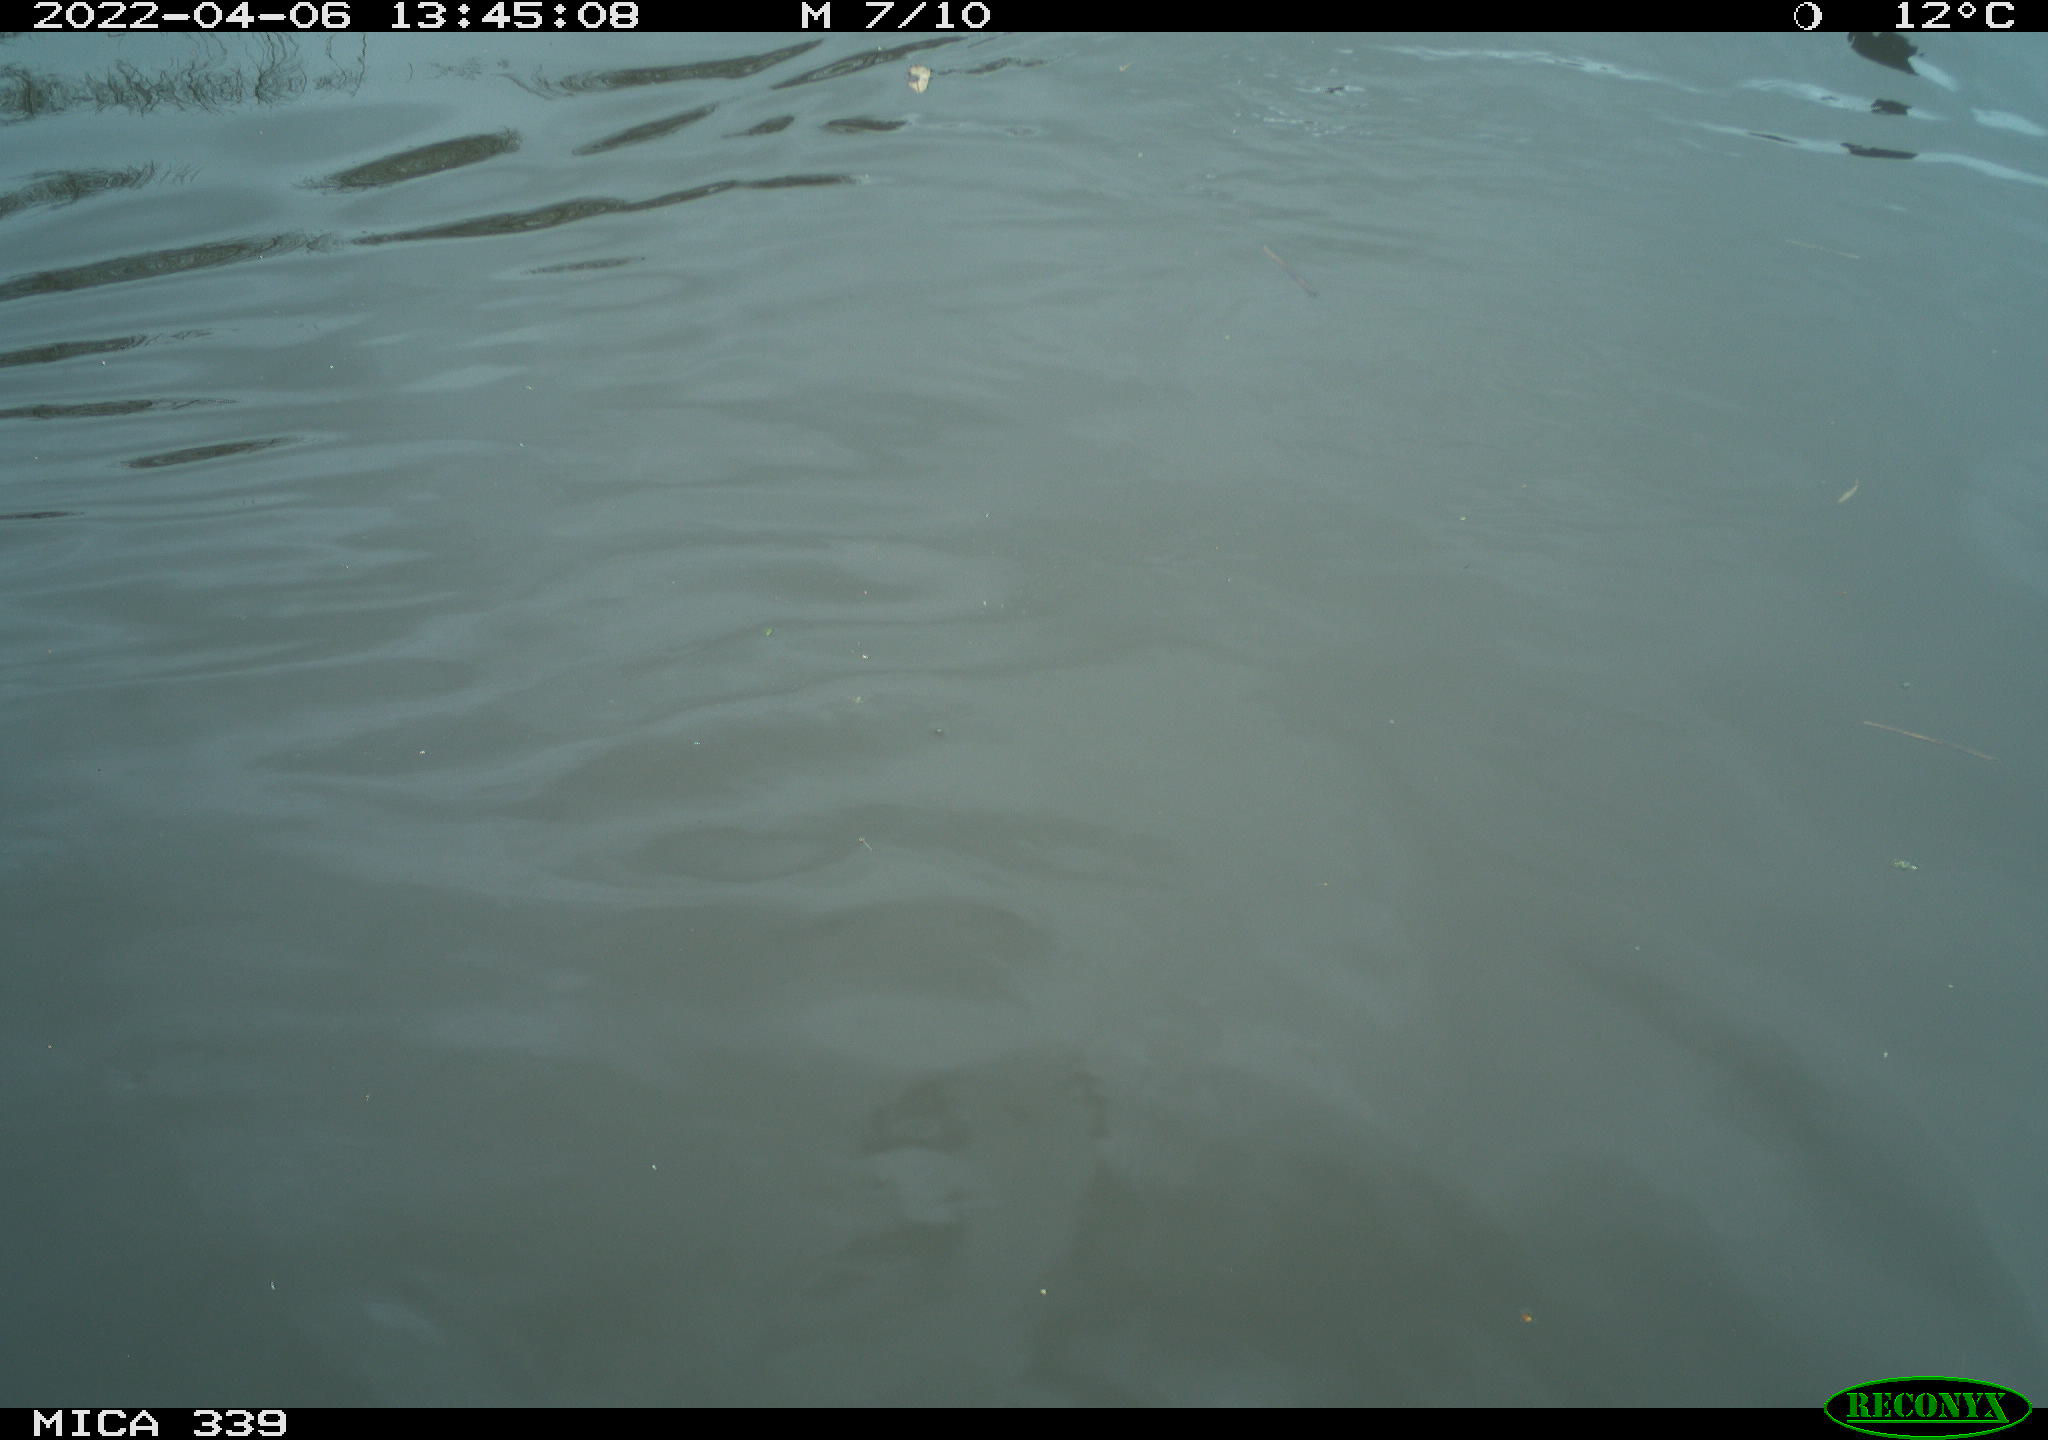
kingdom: Animalia
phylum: Chordata
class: Aves
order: Suliformes
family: Phalacrocoracidae
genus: Phalacrocorax
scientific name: Phalacrocorax carbo
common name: Great cormorant
